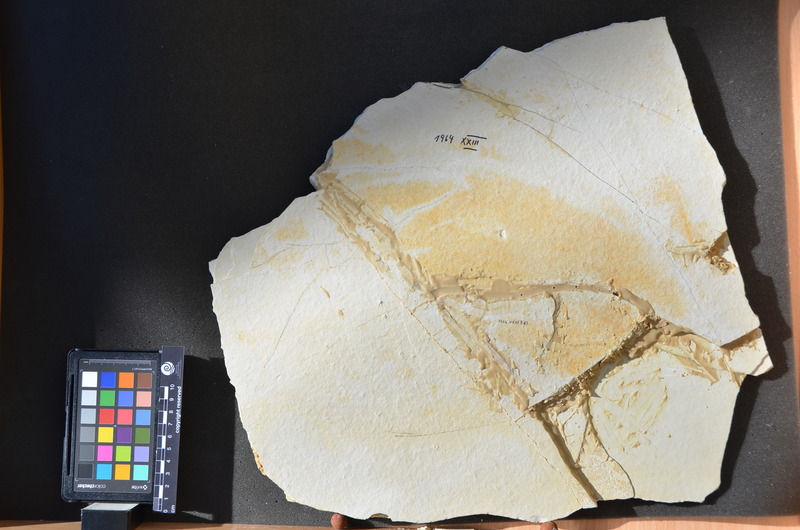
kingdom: Animalia
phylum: Chordata
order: Amiiformes
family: Caturidae
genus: Caturus
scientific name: Caturus
